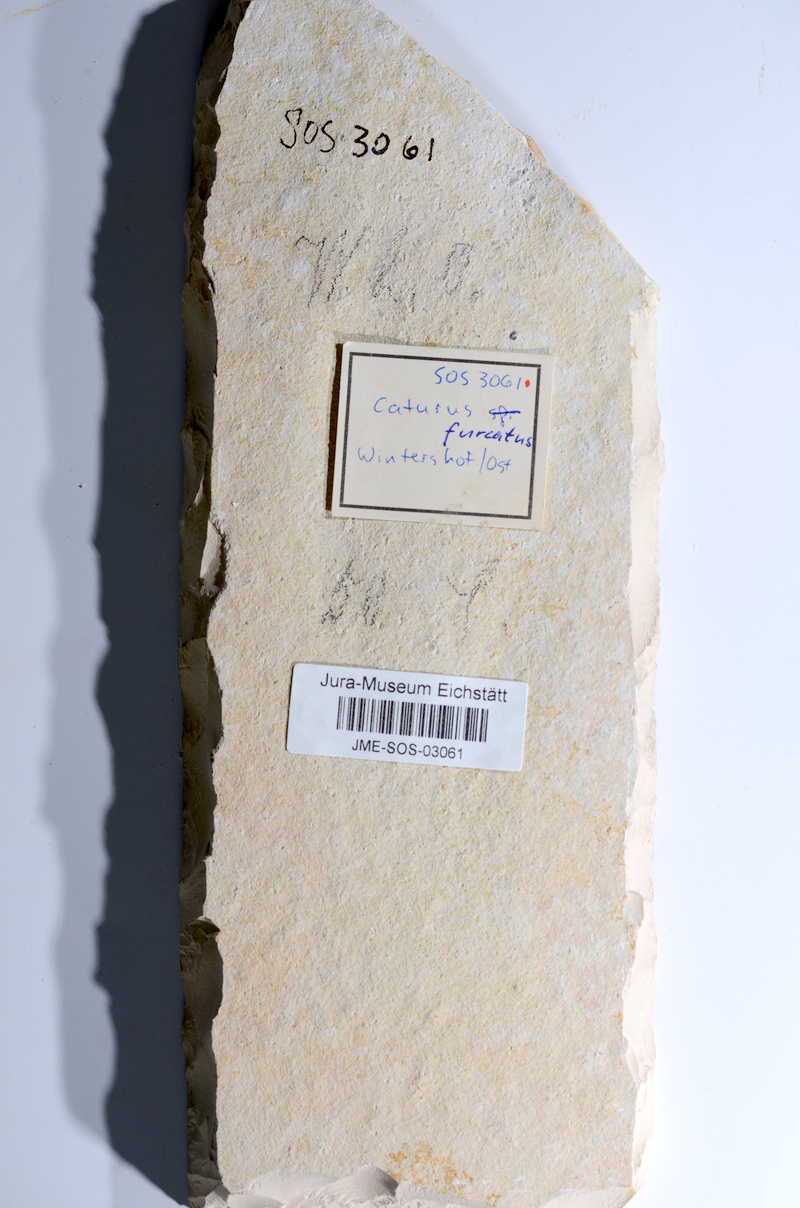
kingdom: Animalia
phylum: Chordata
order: Amiiformes
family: Caturidae
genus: Caturus
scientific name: Caturus furcatus
